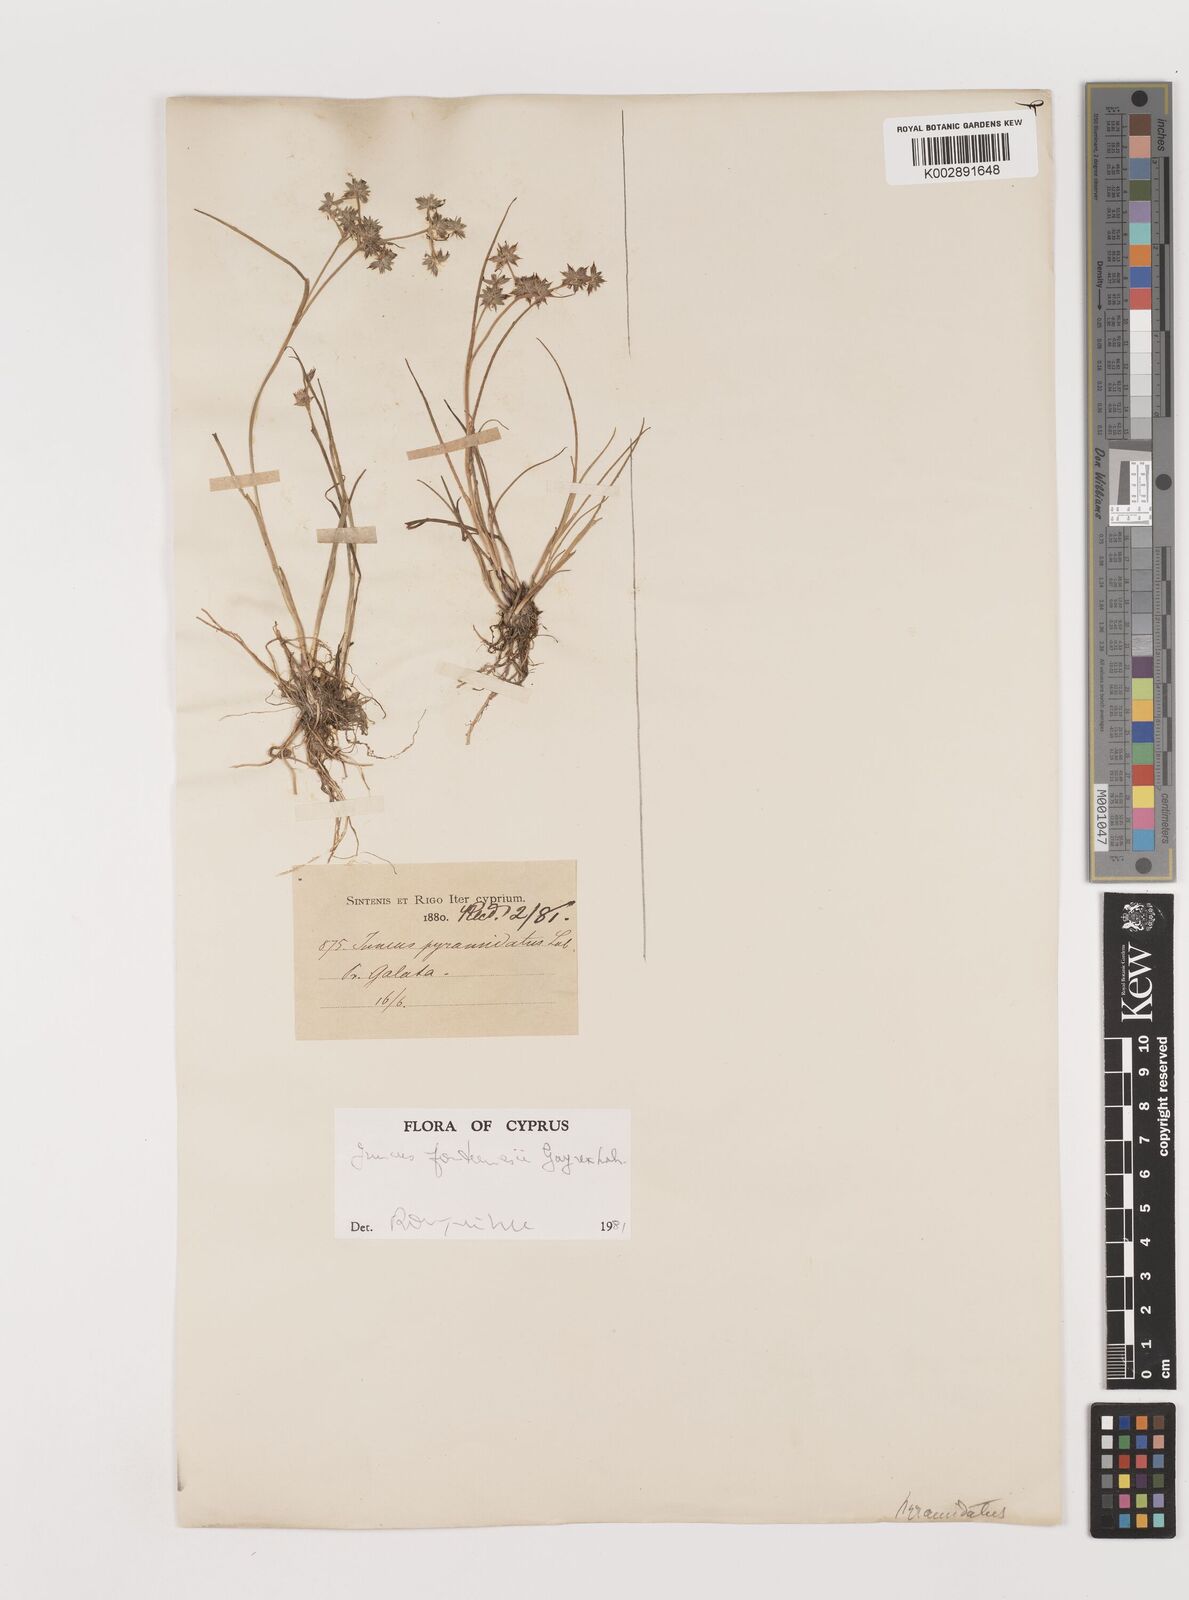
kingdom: Plantae
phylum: Tracheophyta
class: Liliopsida
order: Poales
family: Juncaceae
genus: Juncus
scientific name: Juncus fontanesii
